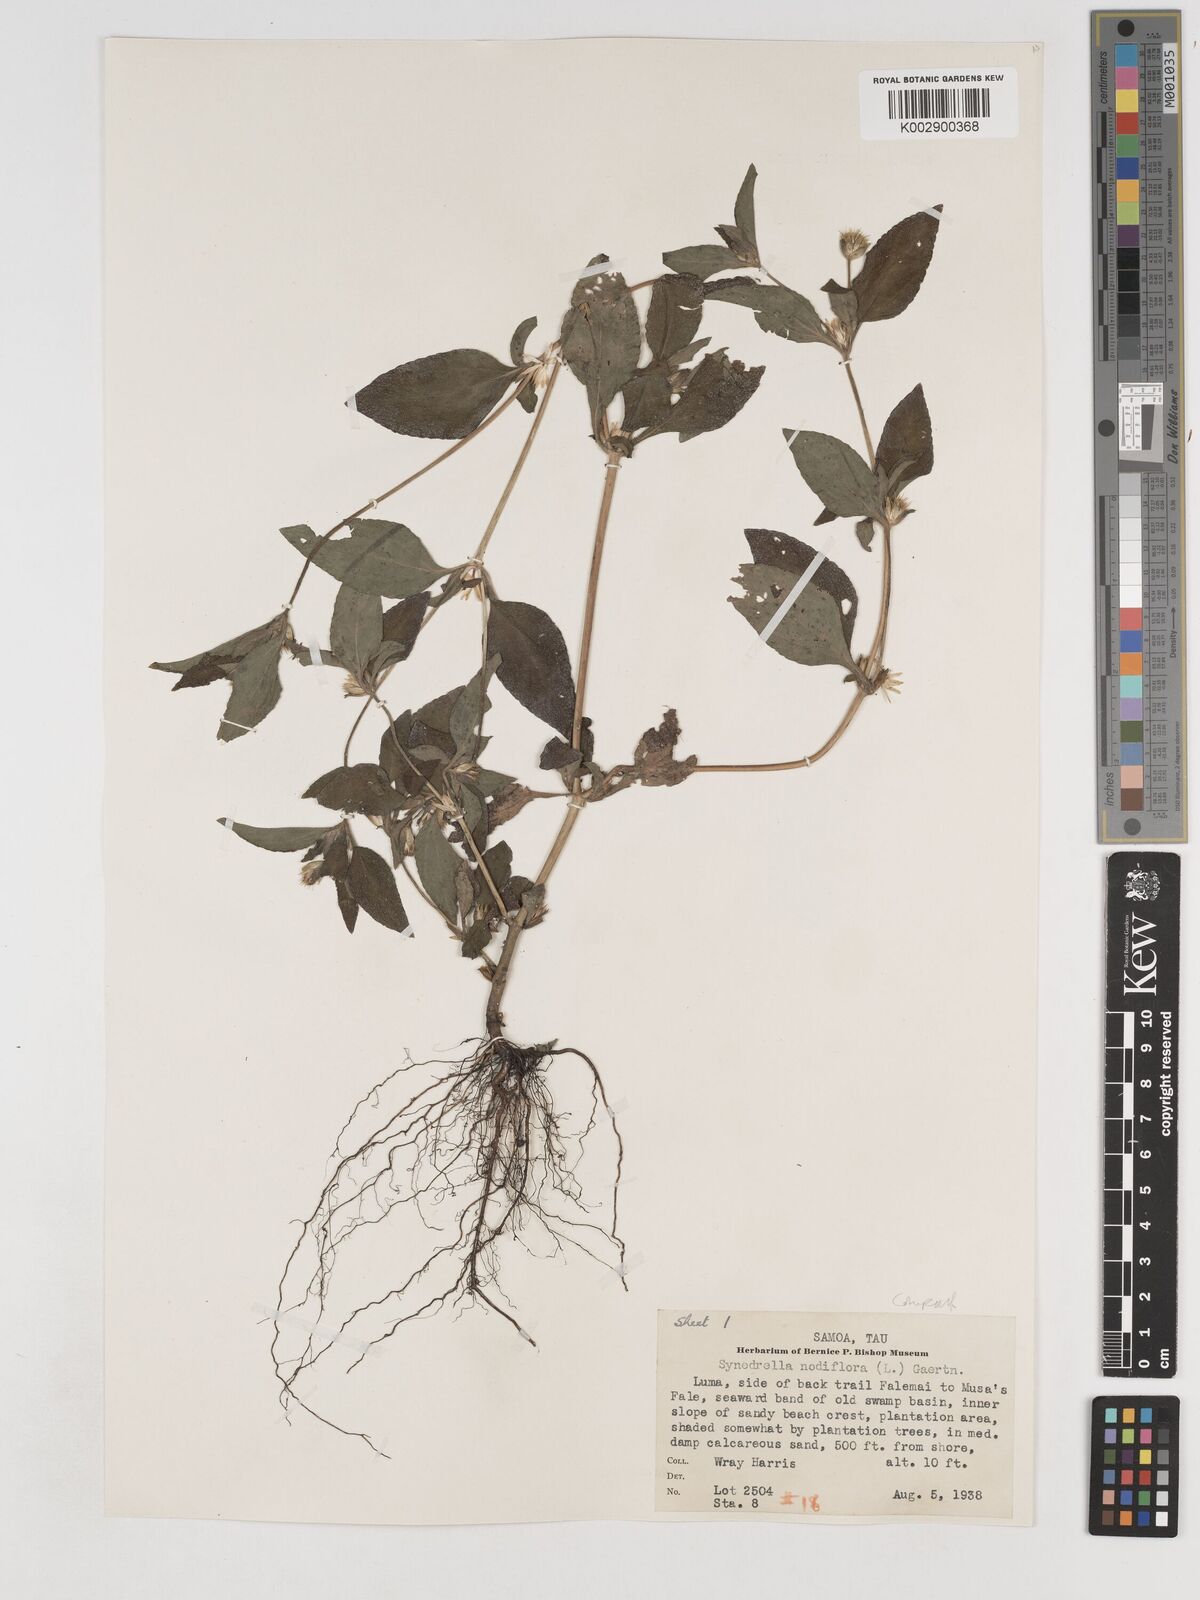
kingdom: Plantae
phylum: Tracheophyta
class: Magnoliopsida
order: Asterales
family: Asteraceae
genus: Synedrella
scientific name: Synedrella nodiflora
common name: Nodeweed
